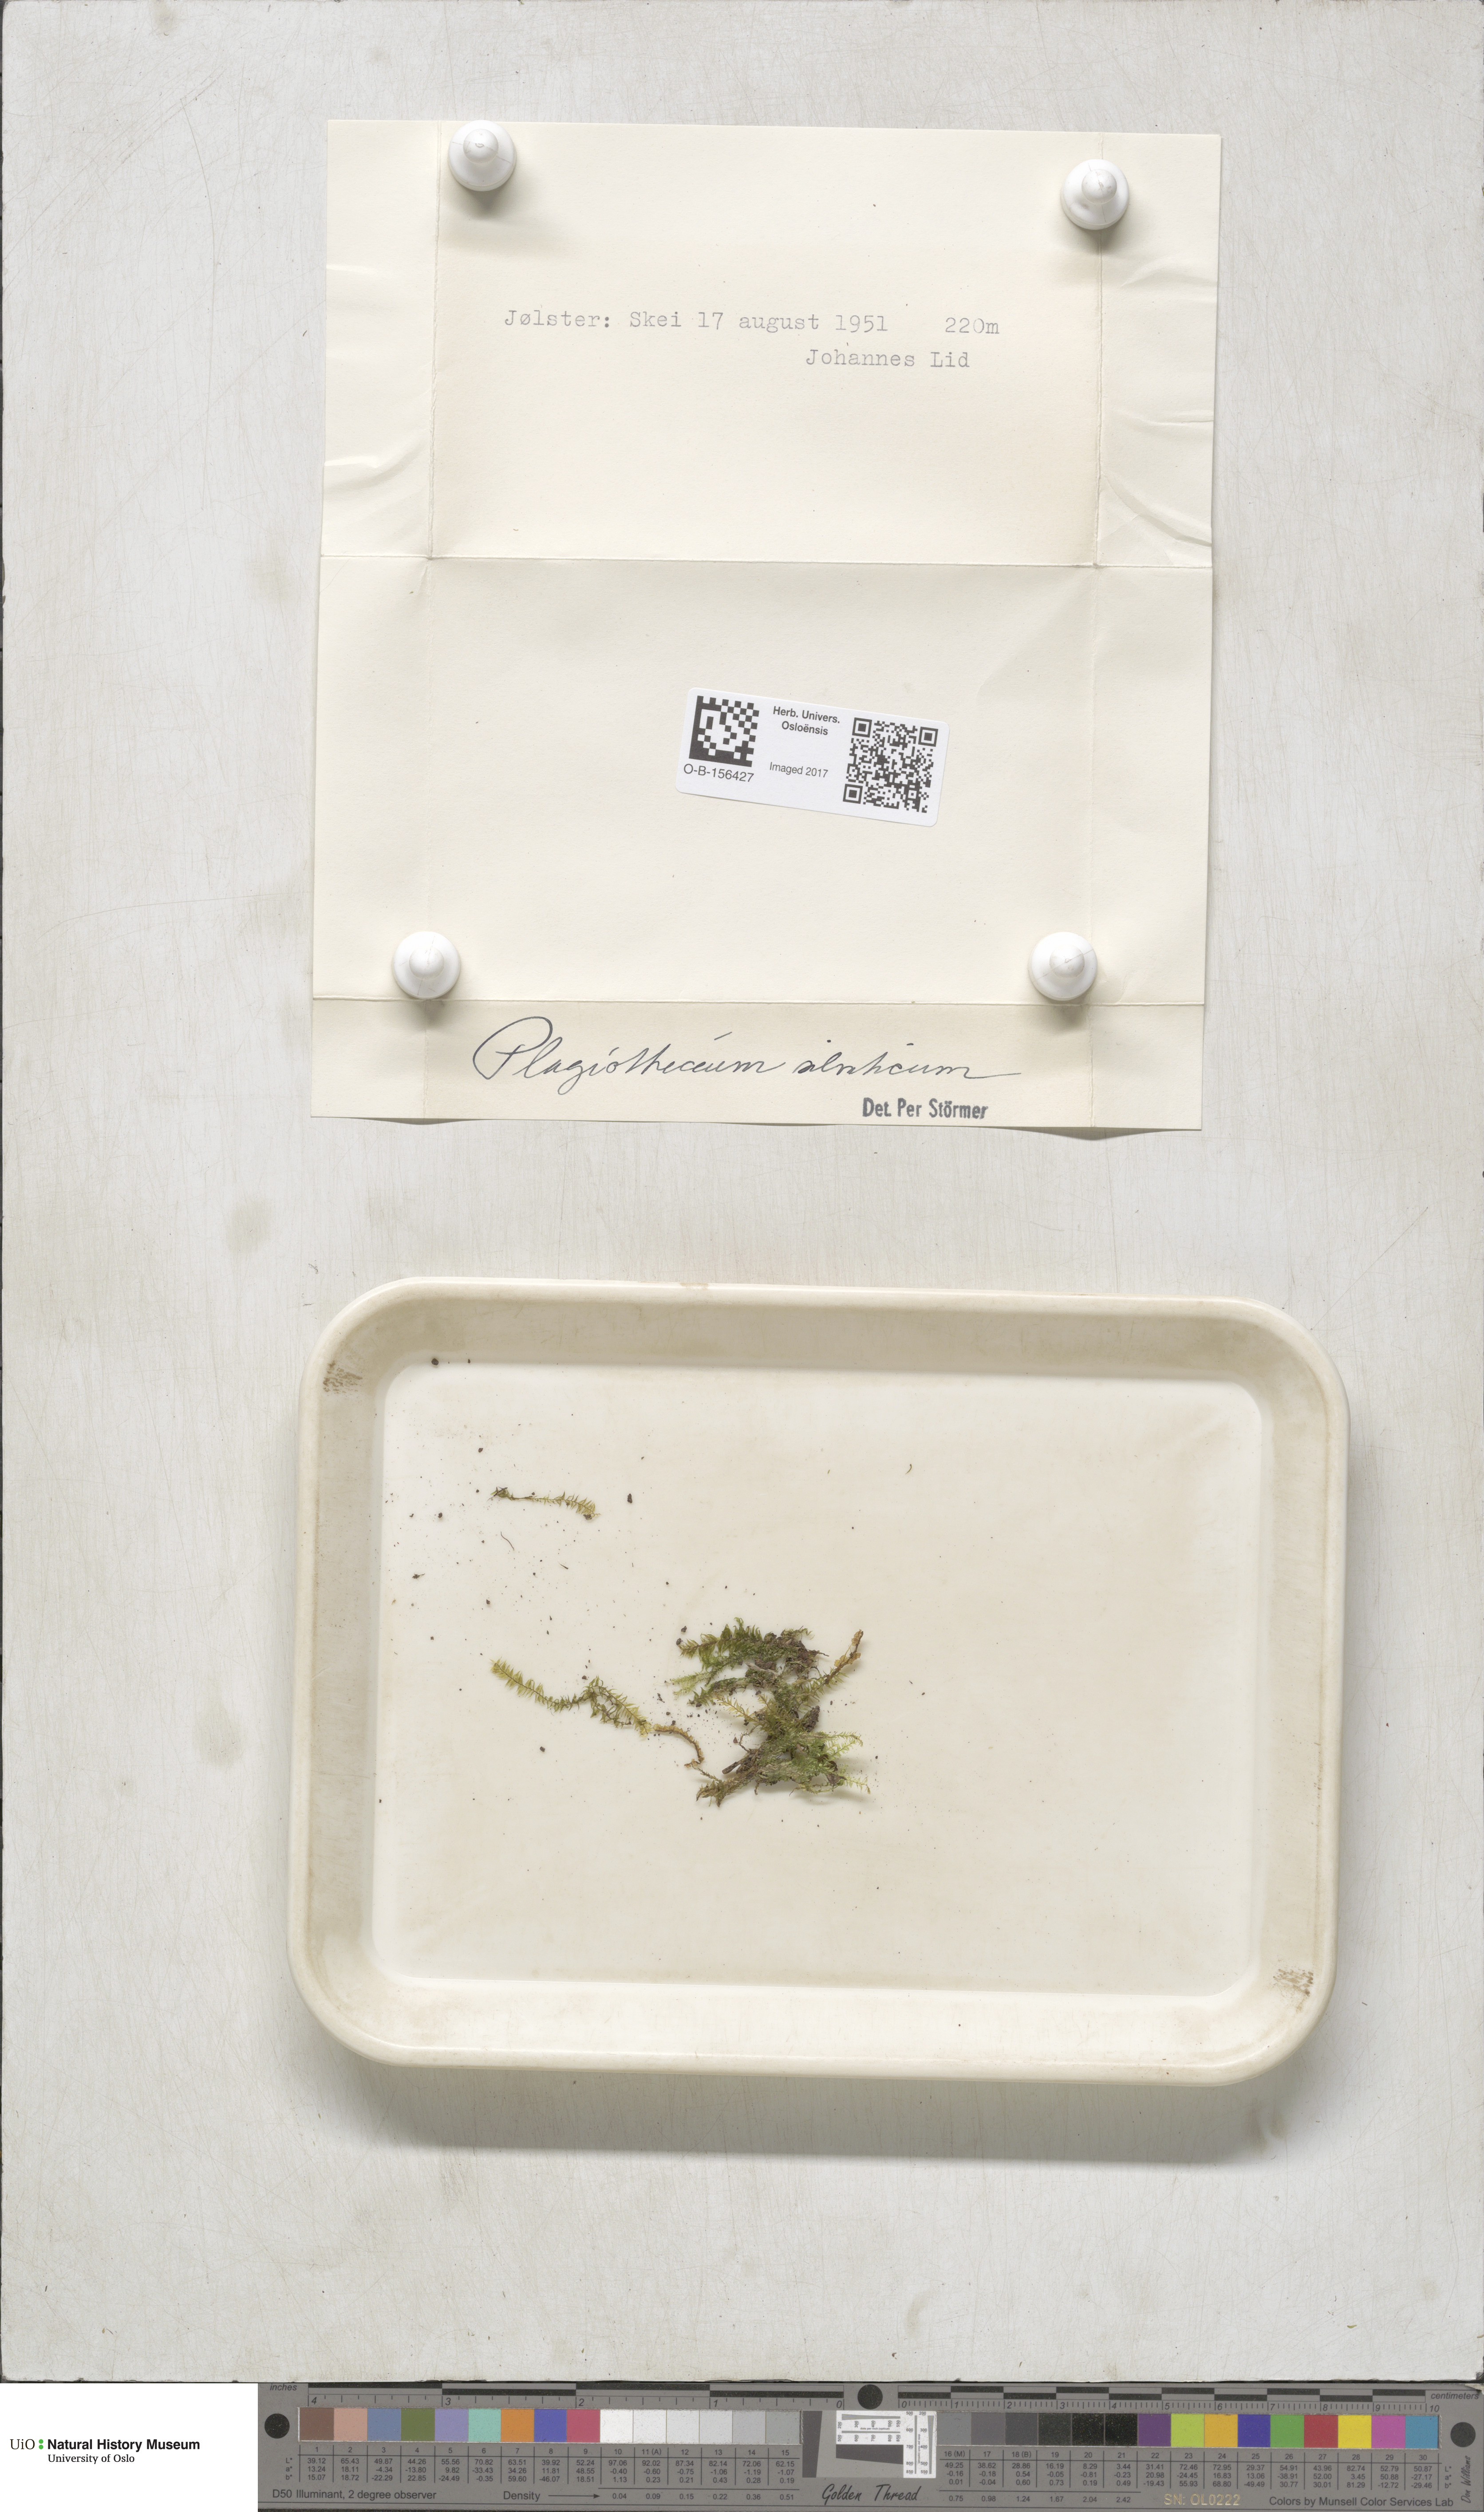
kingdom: Plantae
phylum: Bryophyta
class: Bryopsida
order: Hypnales
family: Plagiotheciaceae
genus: Plagiothecium
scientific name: Plagiothecium nemorale
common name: Woodsy silk-moss
